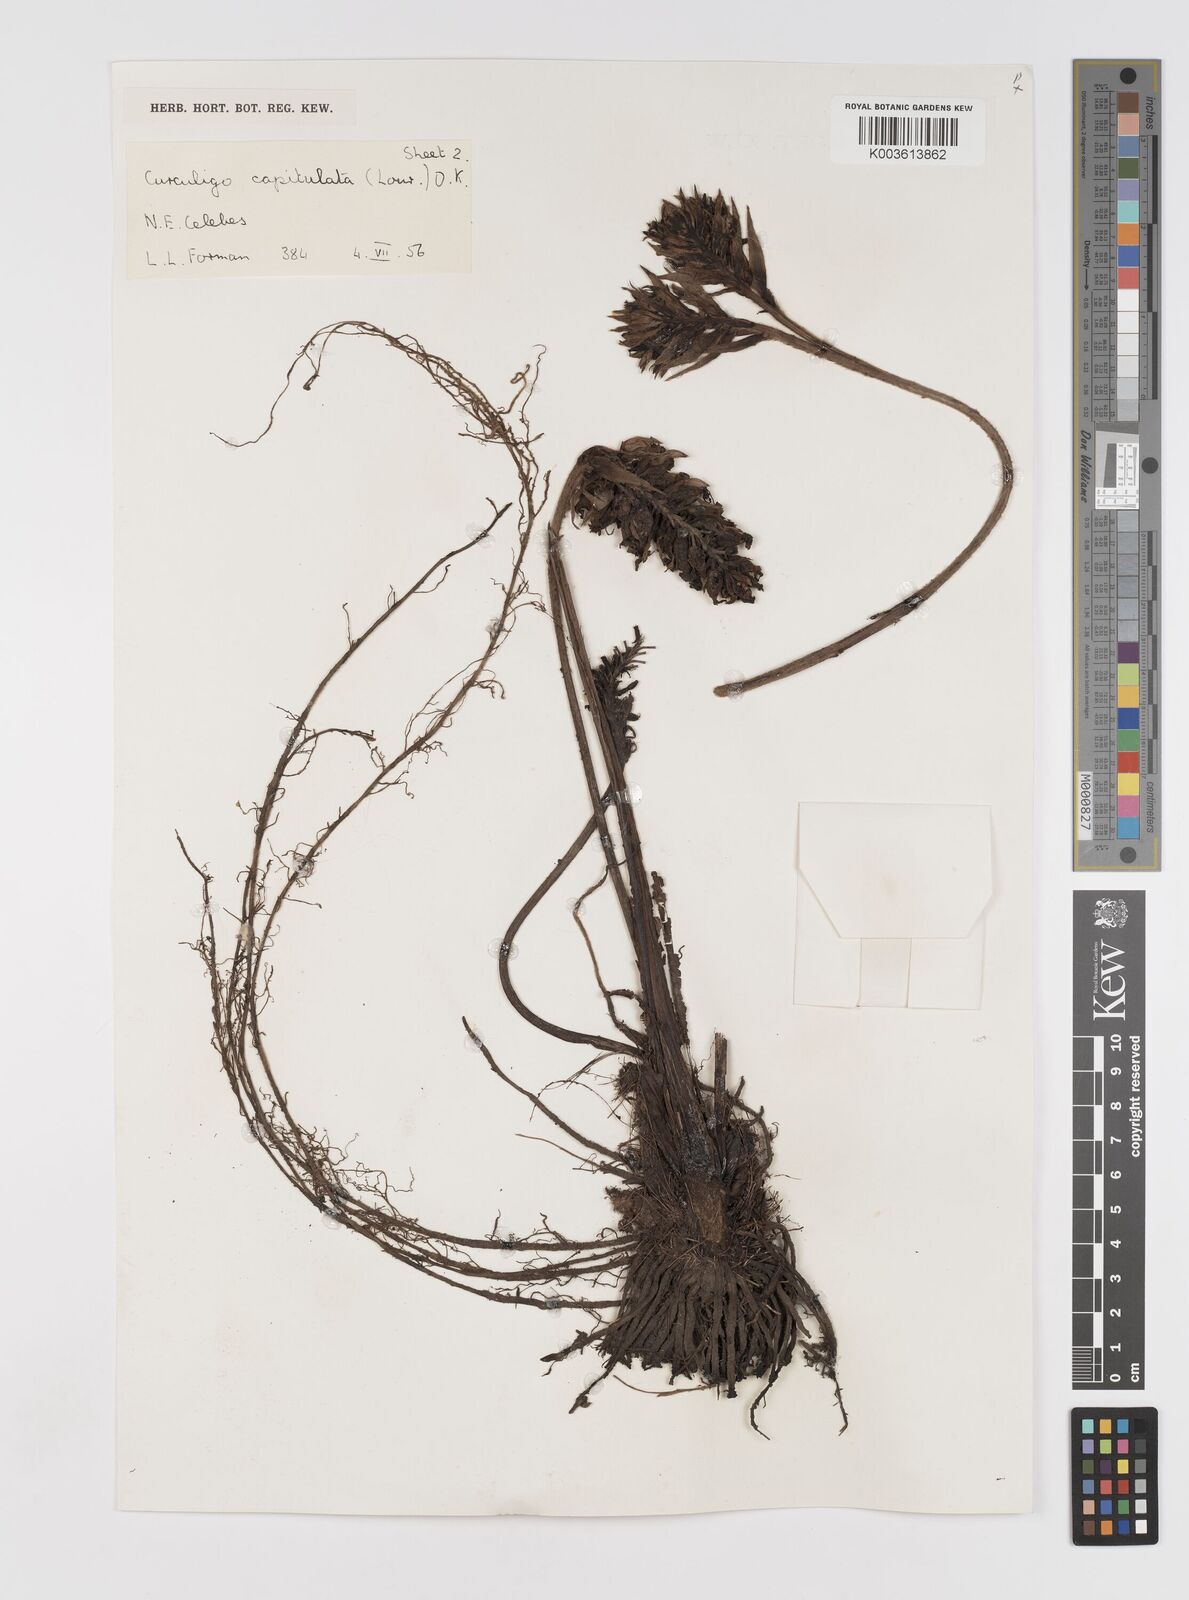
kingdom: Plantae
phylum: Tracheophyta
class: Liliopsida
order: Asparagales
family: Hypoxidaceae
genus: Curculigo
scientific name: Curculigo capitulata
